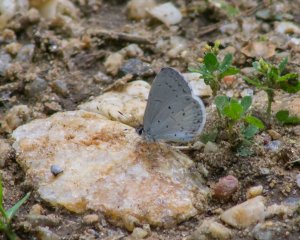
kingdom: Animalia
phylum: Arthropoda
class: Insecta
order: Lepidoptera
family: Lycaenidae
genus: Cyaniris
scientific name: Cyaniris neglecta
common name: Summer Azure
